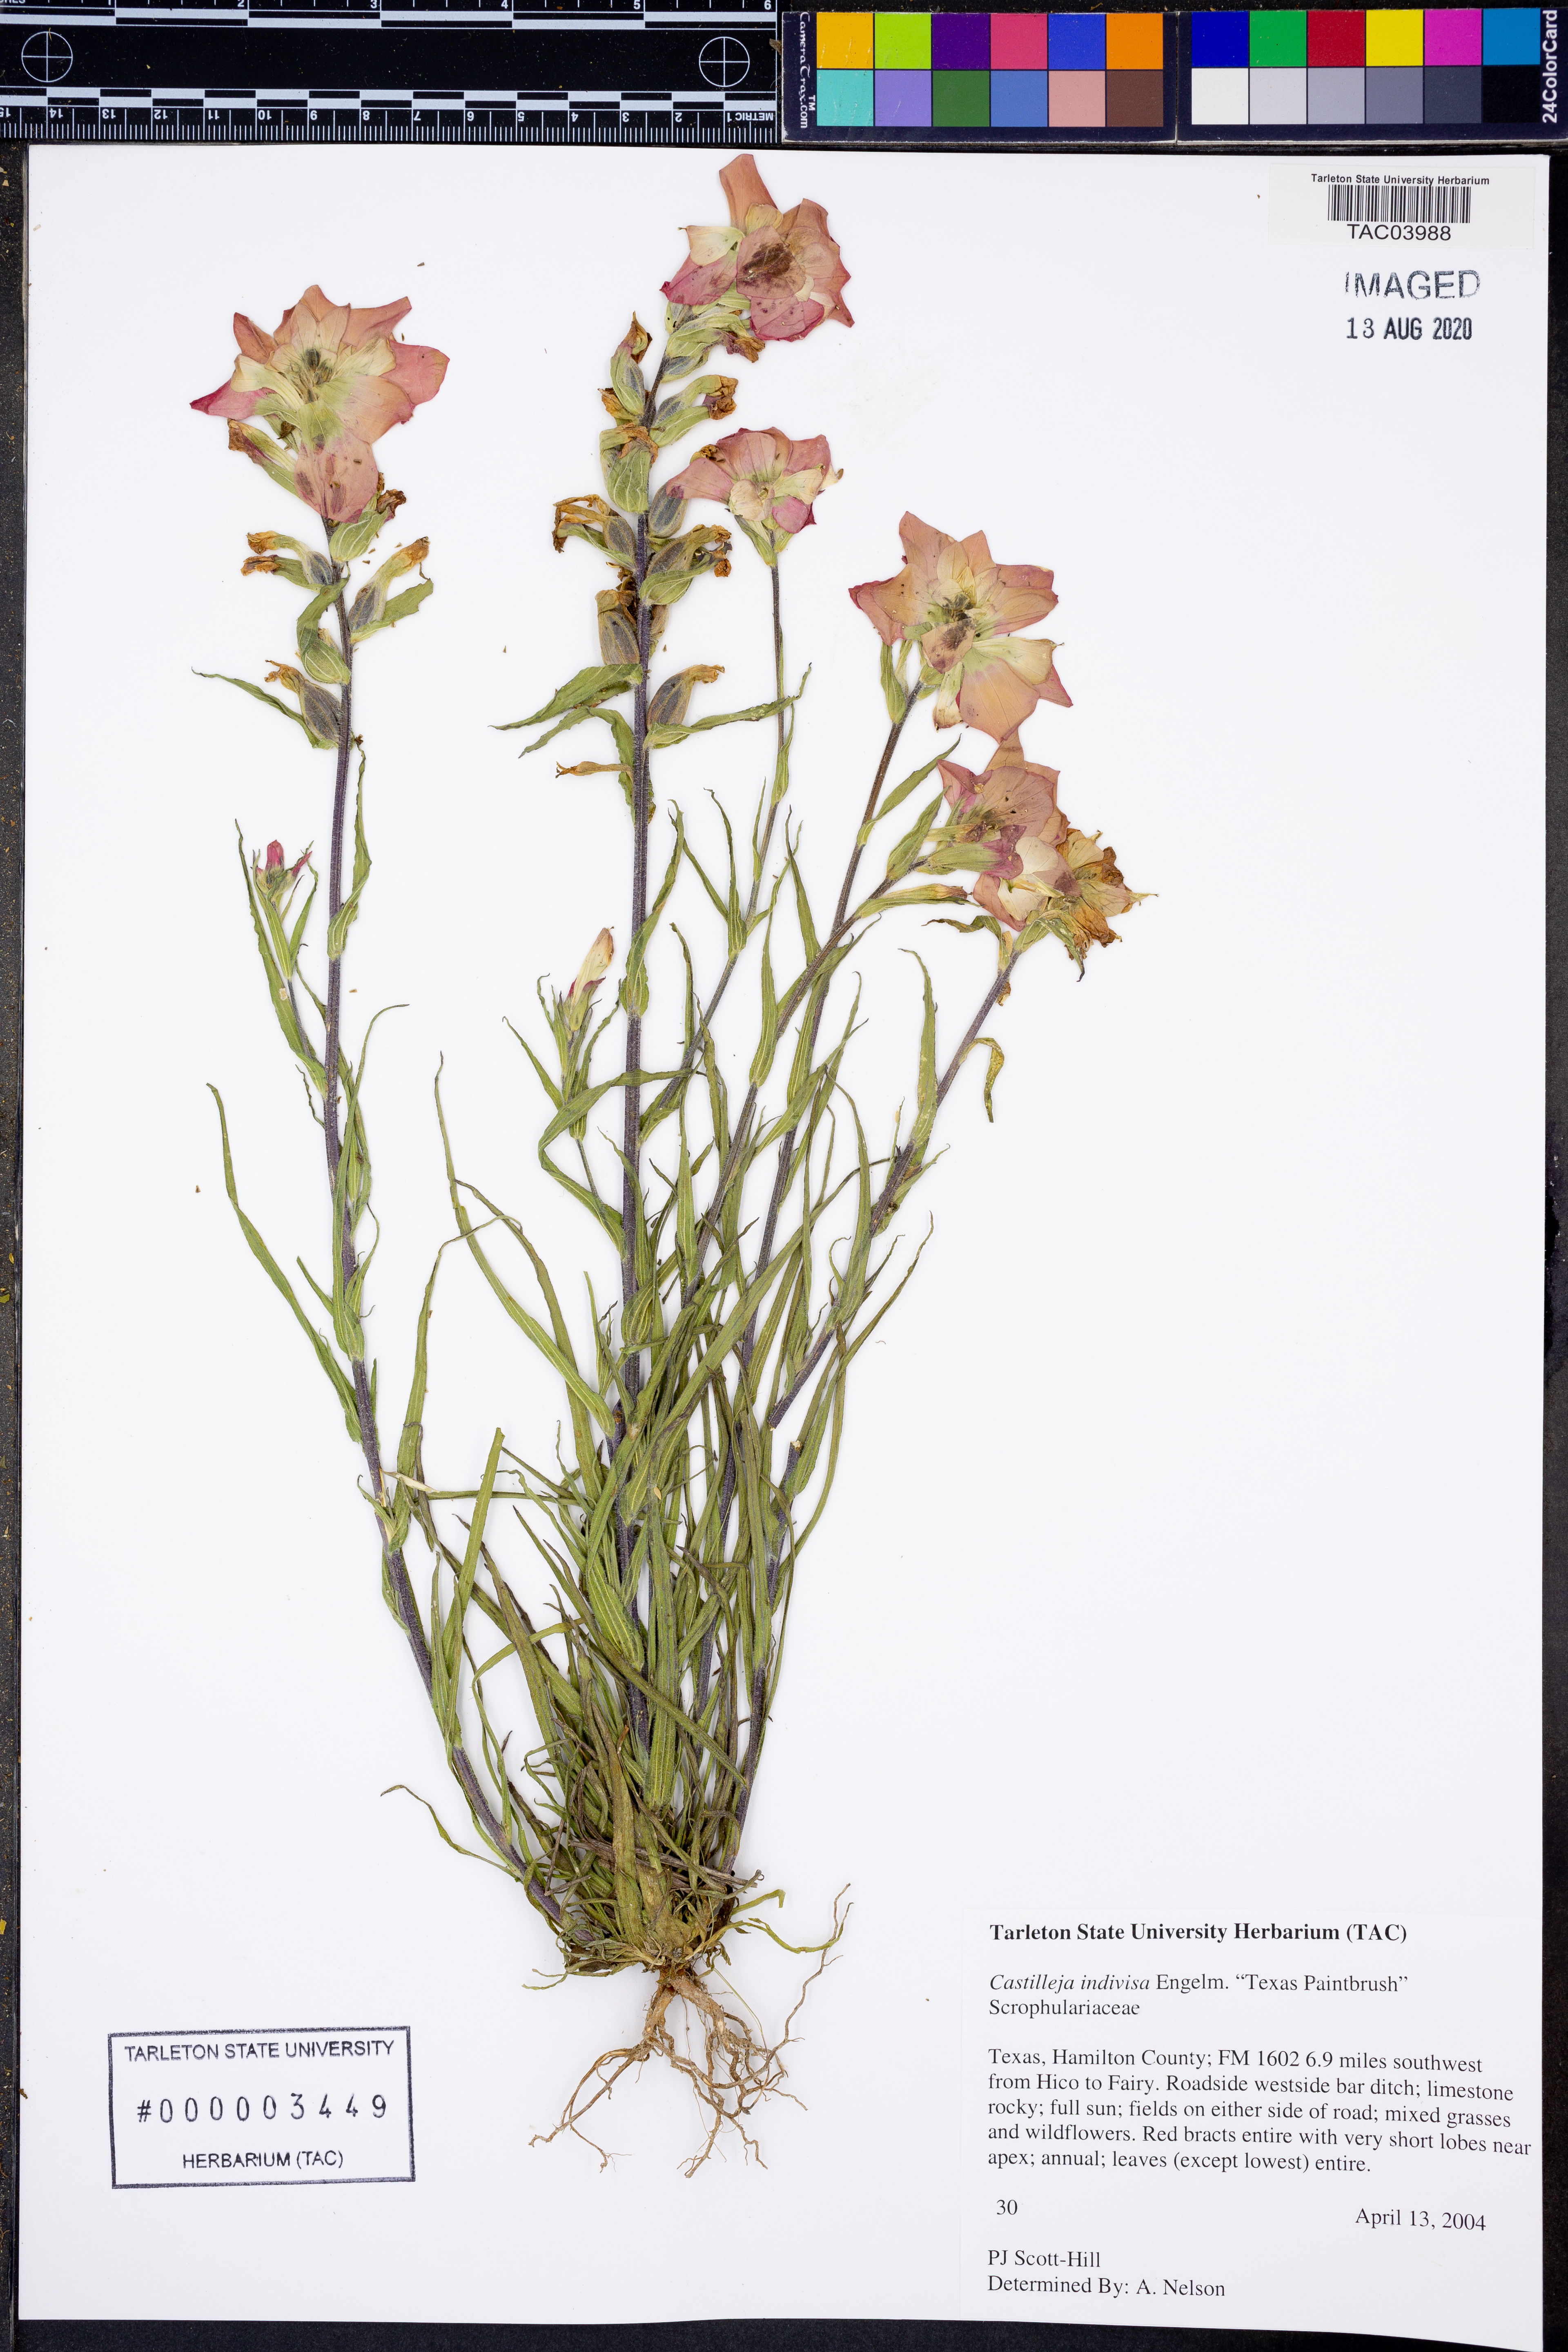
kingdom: Plantae
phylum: Tracheophyta
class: Magnoliopsida
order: Lamiales
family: Orobanchaceae
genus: Castilleja
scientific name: Castilleja indivisa
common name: Texas paintbrush
